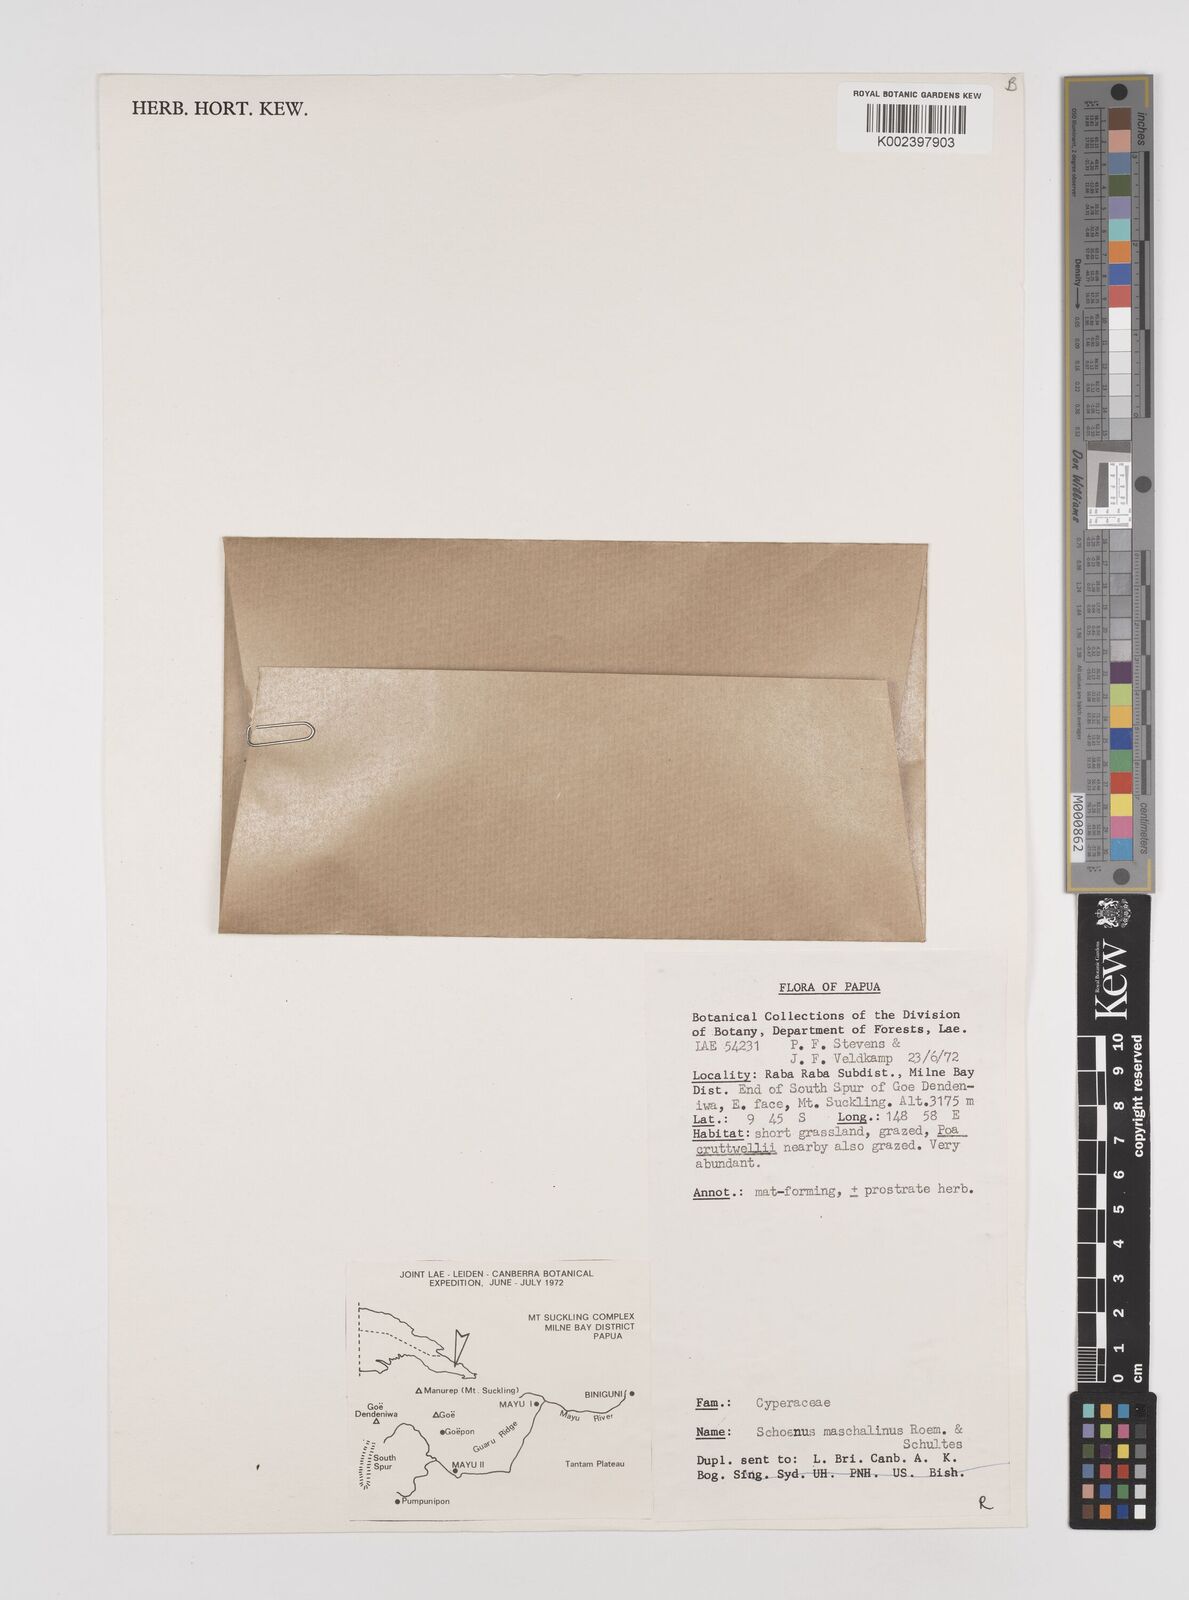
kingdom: Plantae
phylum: Tracheophyta
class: Liliopsida
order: Poales
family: Cyperaceae
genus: Schoenus
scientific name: Schoenus maschalinus
